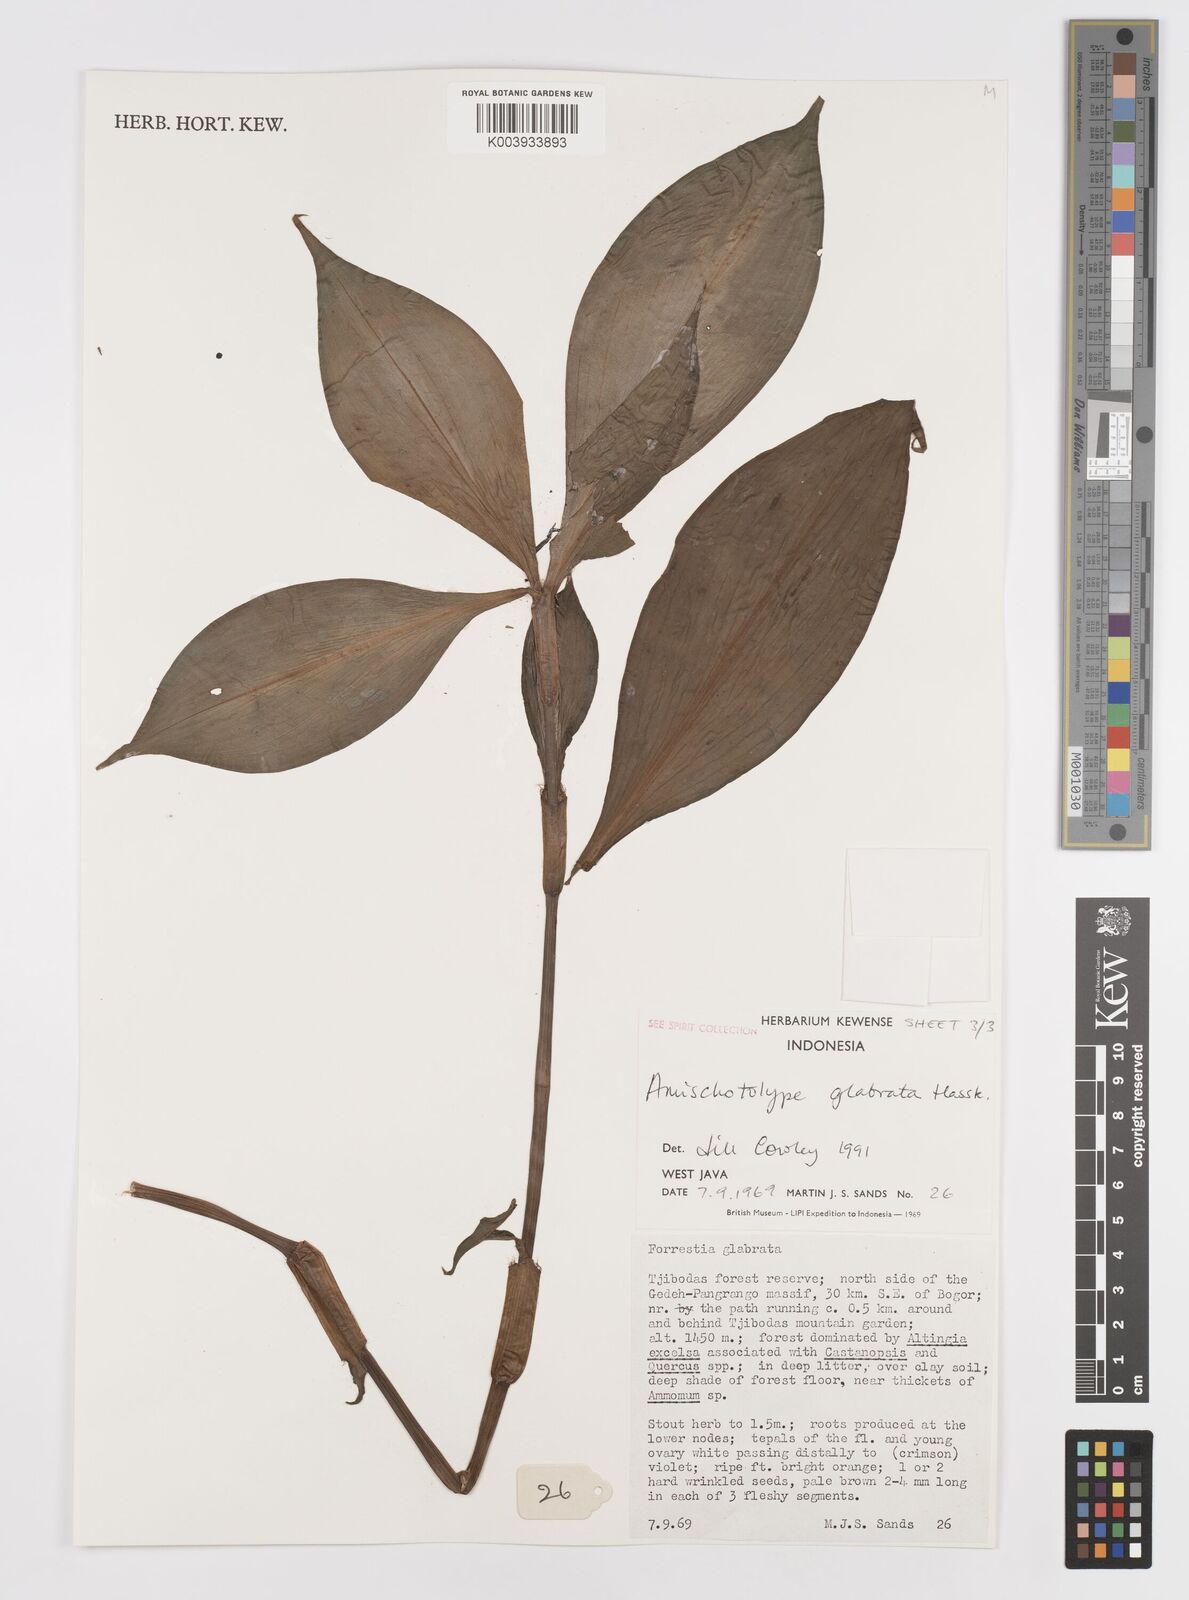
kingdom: Plantae
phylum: Tracheophyta
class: Liliopsida
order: Commelinales
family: Commelinaceae
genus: Amischotolype
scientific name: Amischotolype glabrata
